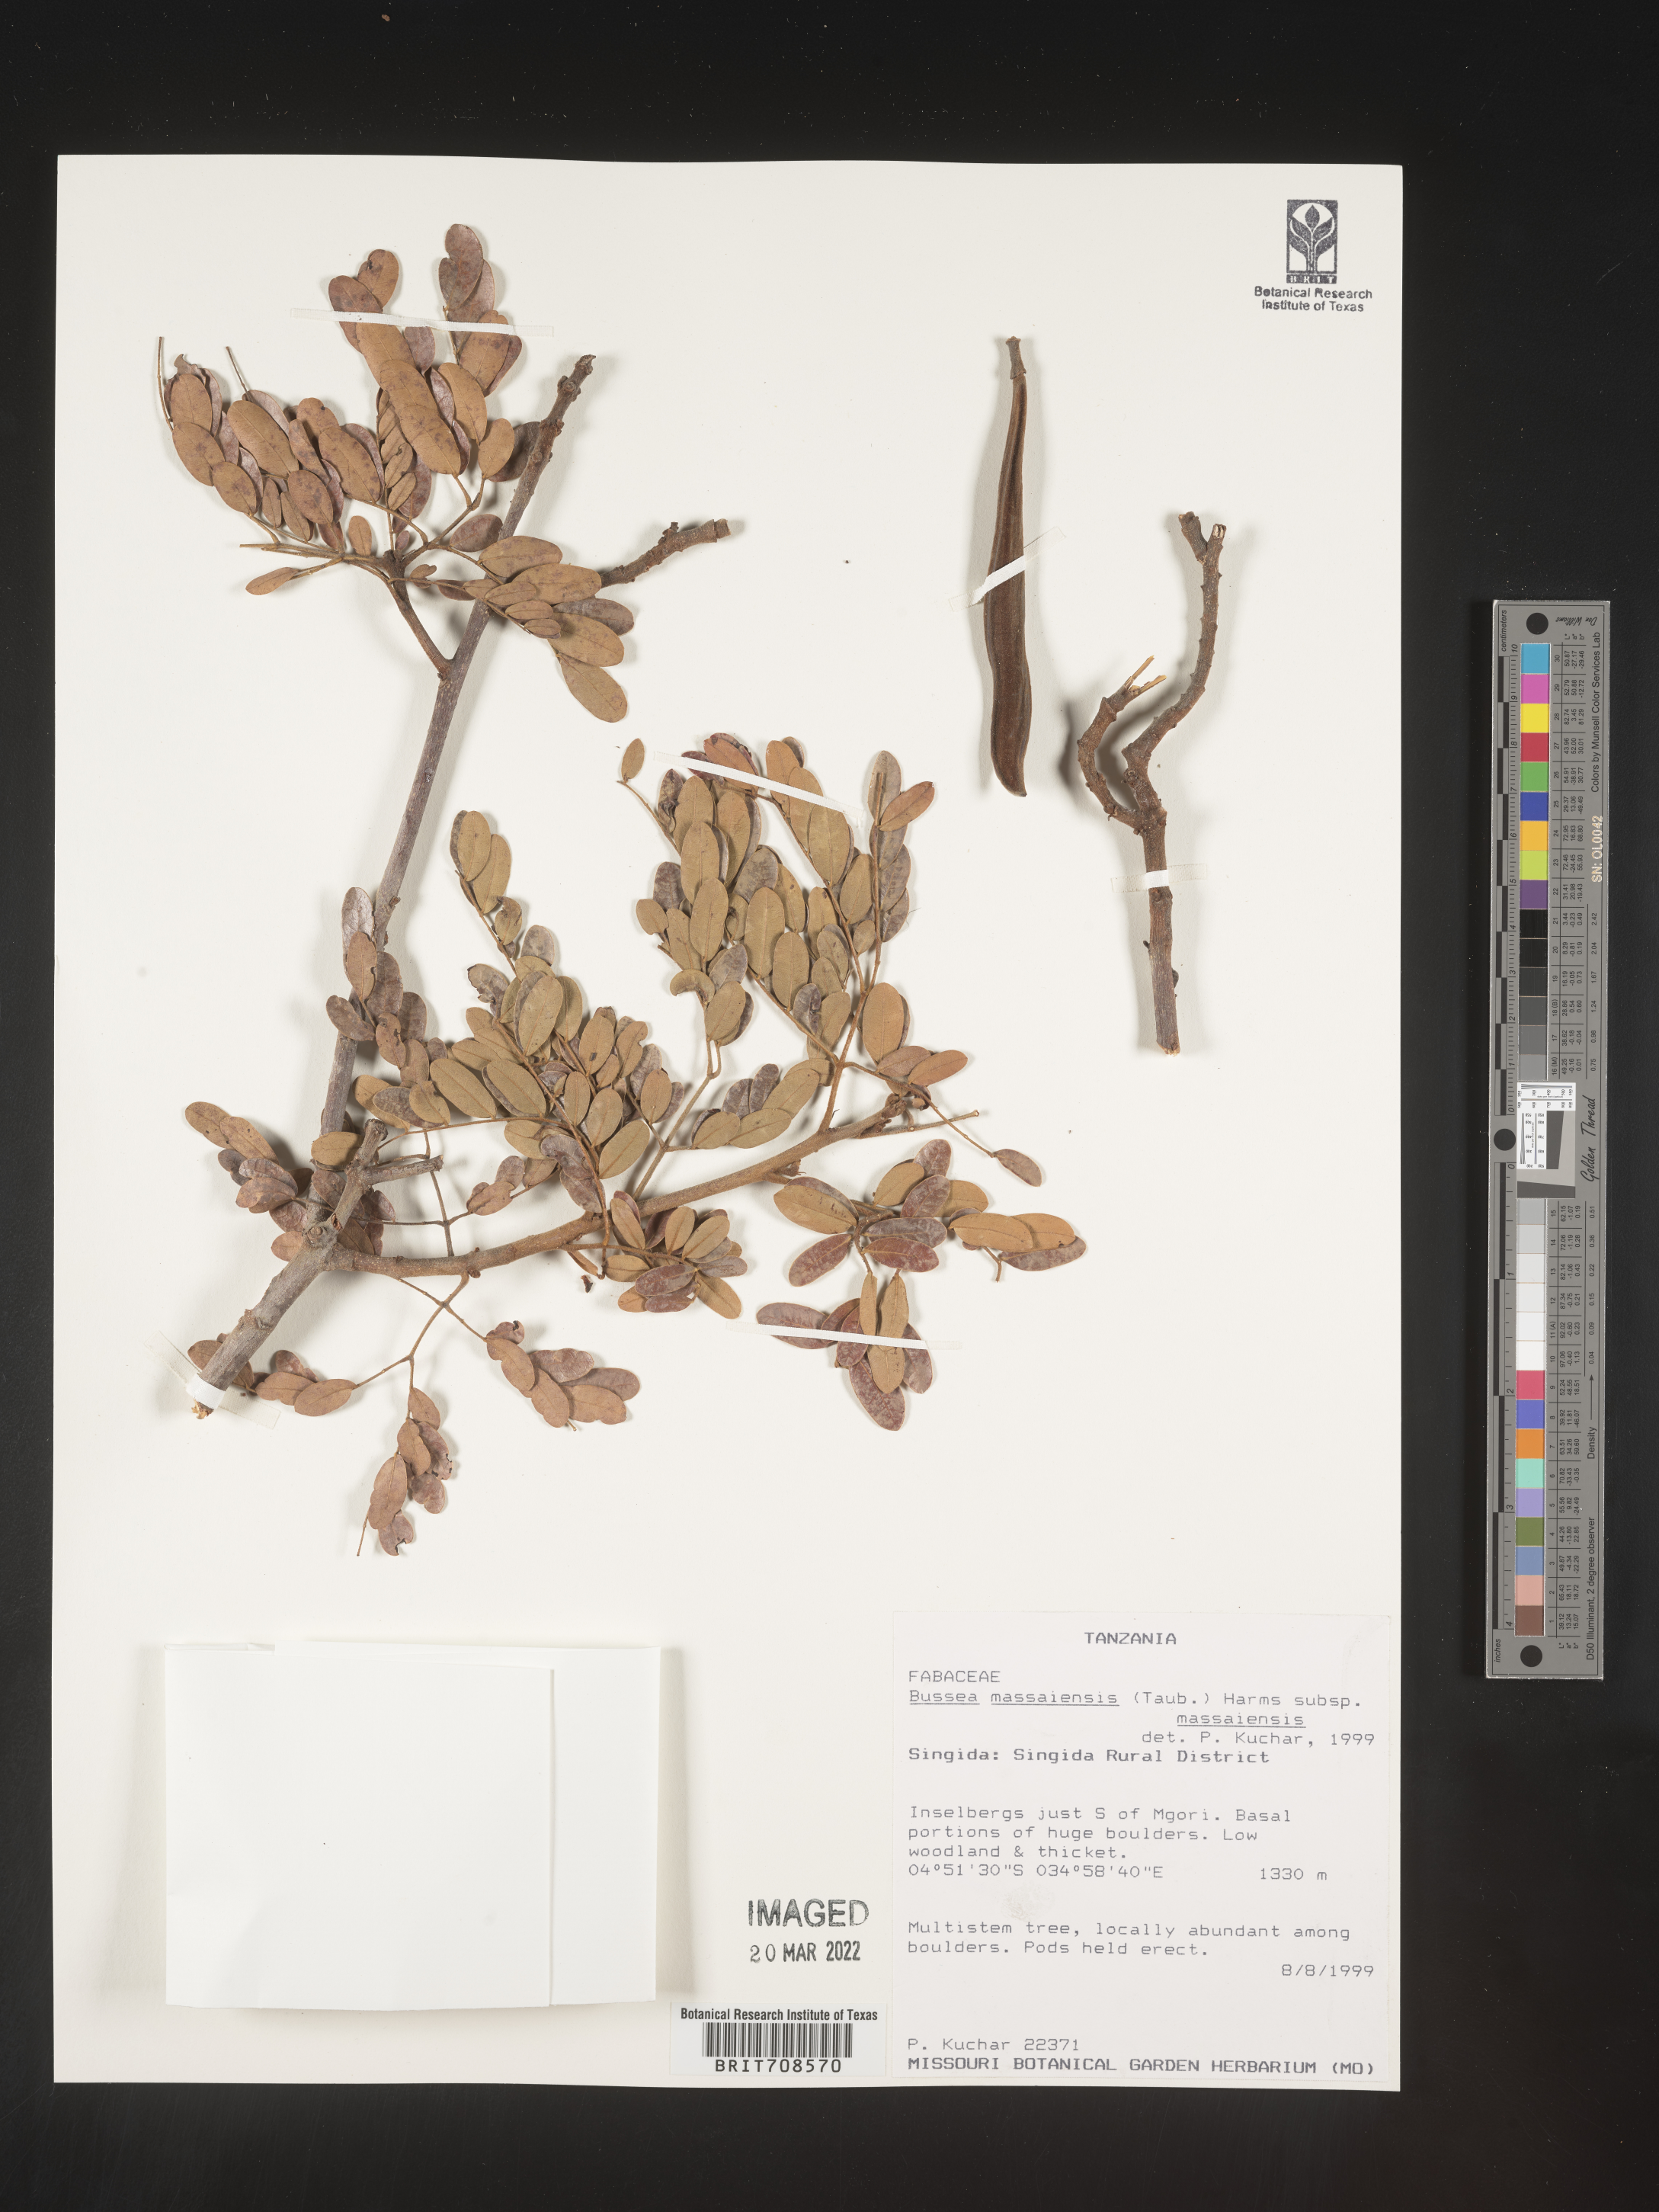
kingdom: Plantae
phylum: Tracheophyta
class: Magnoliopsida
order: Fabales
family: Fabaceae
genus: Bussea
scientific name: Bussea
